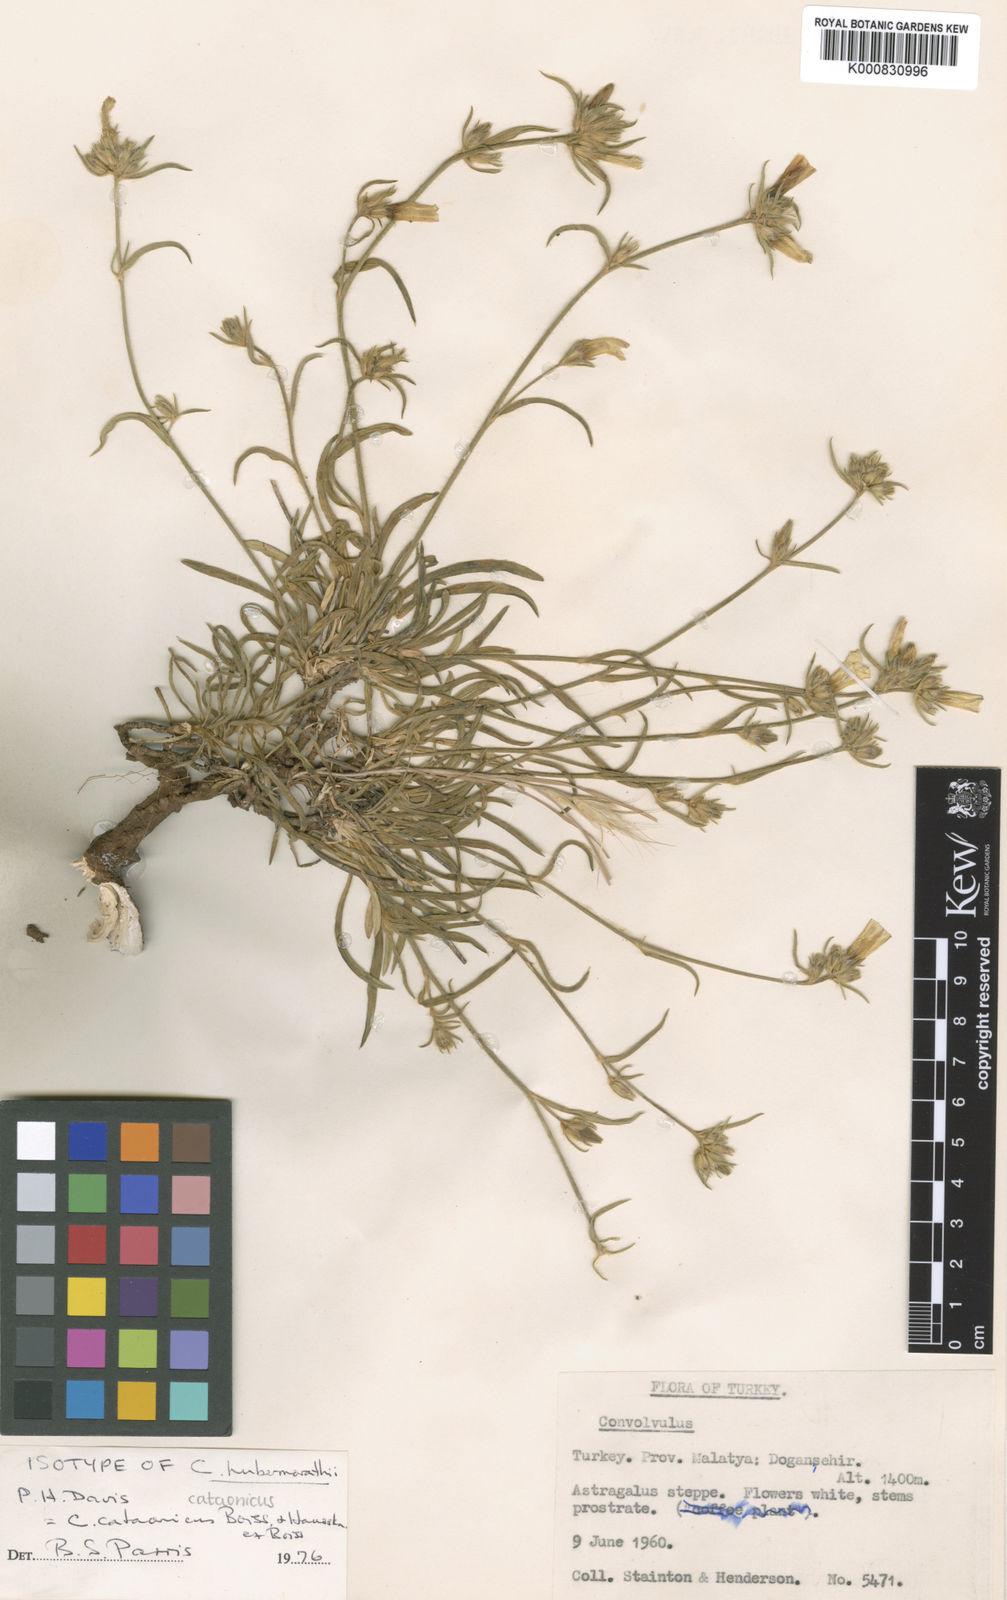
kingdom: Plantae
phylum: Tracheophyta
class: Magnoliopsida
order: Solanales
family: Convolvulaceae
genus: Convolvulus
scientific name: Convolvulus cataonicus
